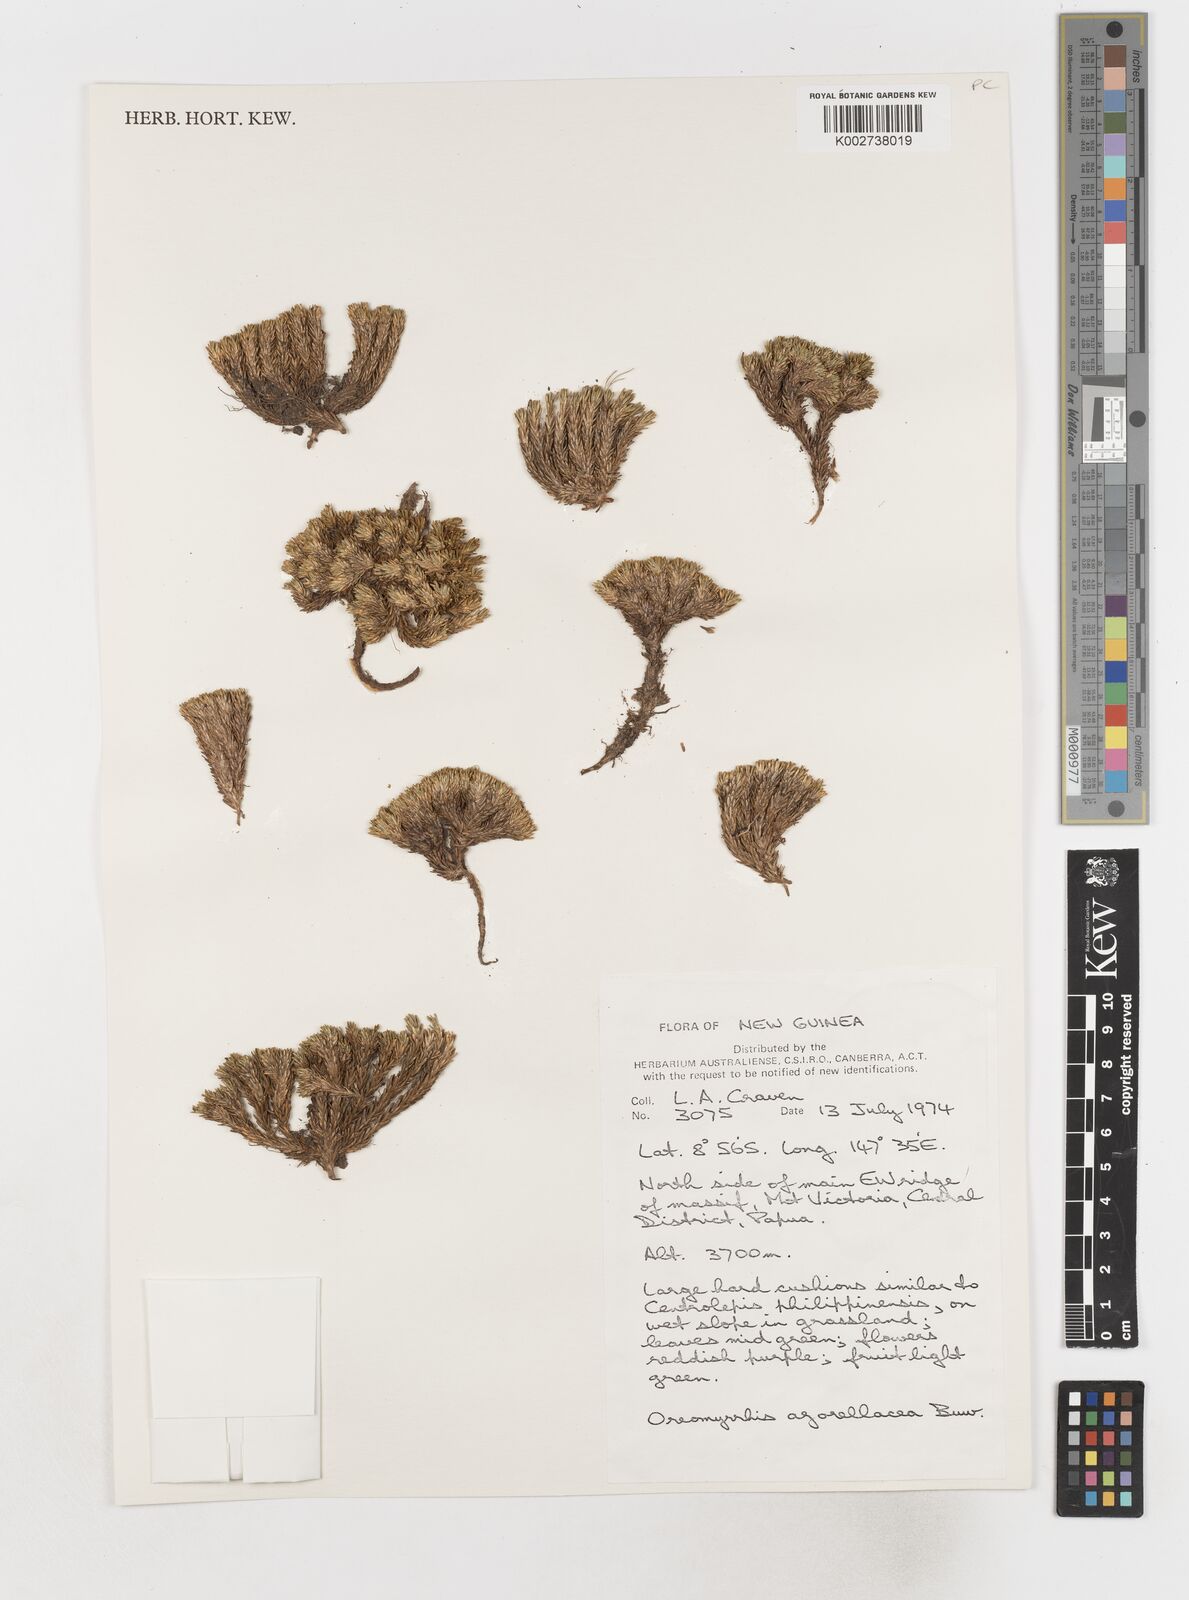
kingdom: Plantae
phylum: Tracheophyta
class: Magnoliopsida
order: Apiales
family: Apiaceae
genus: Chaerophyllum
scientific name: Chaerophyllum azorellaceum
